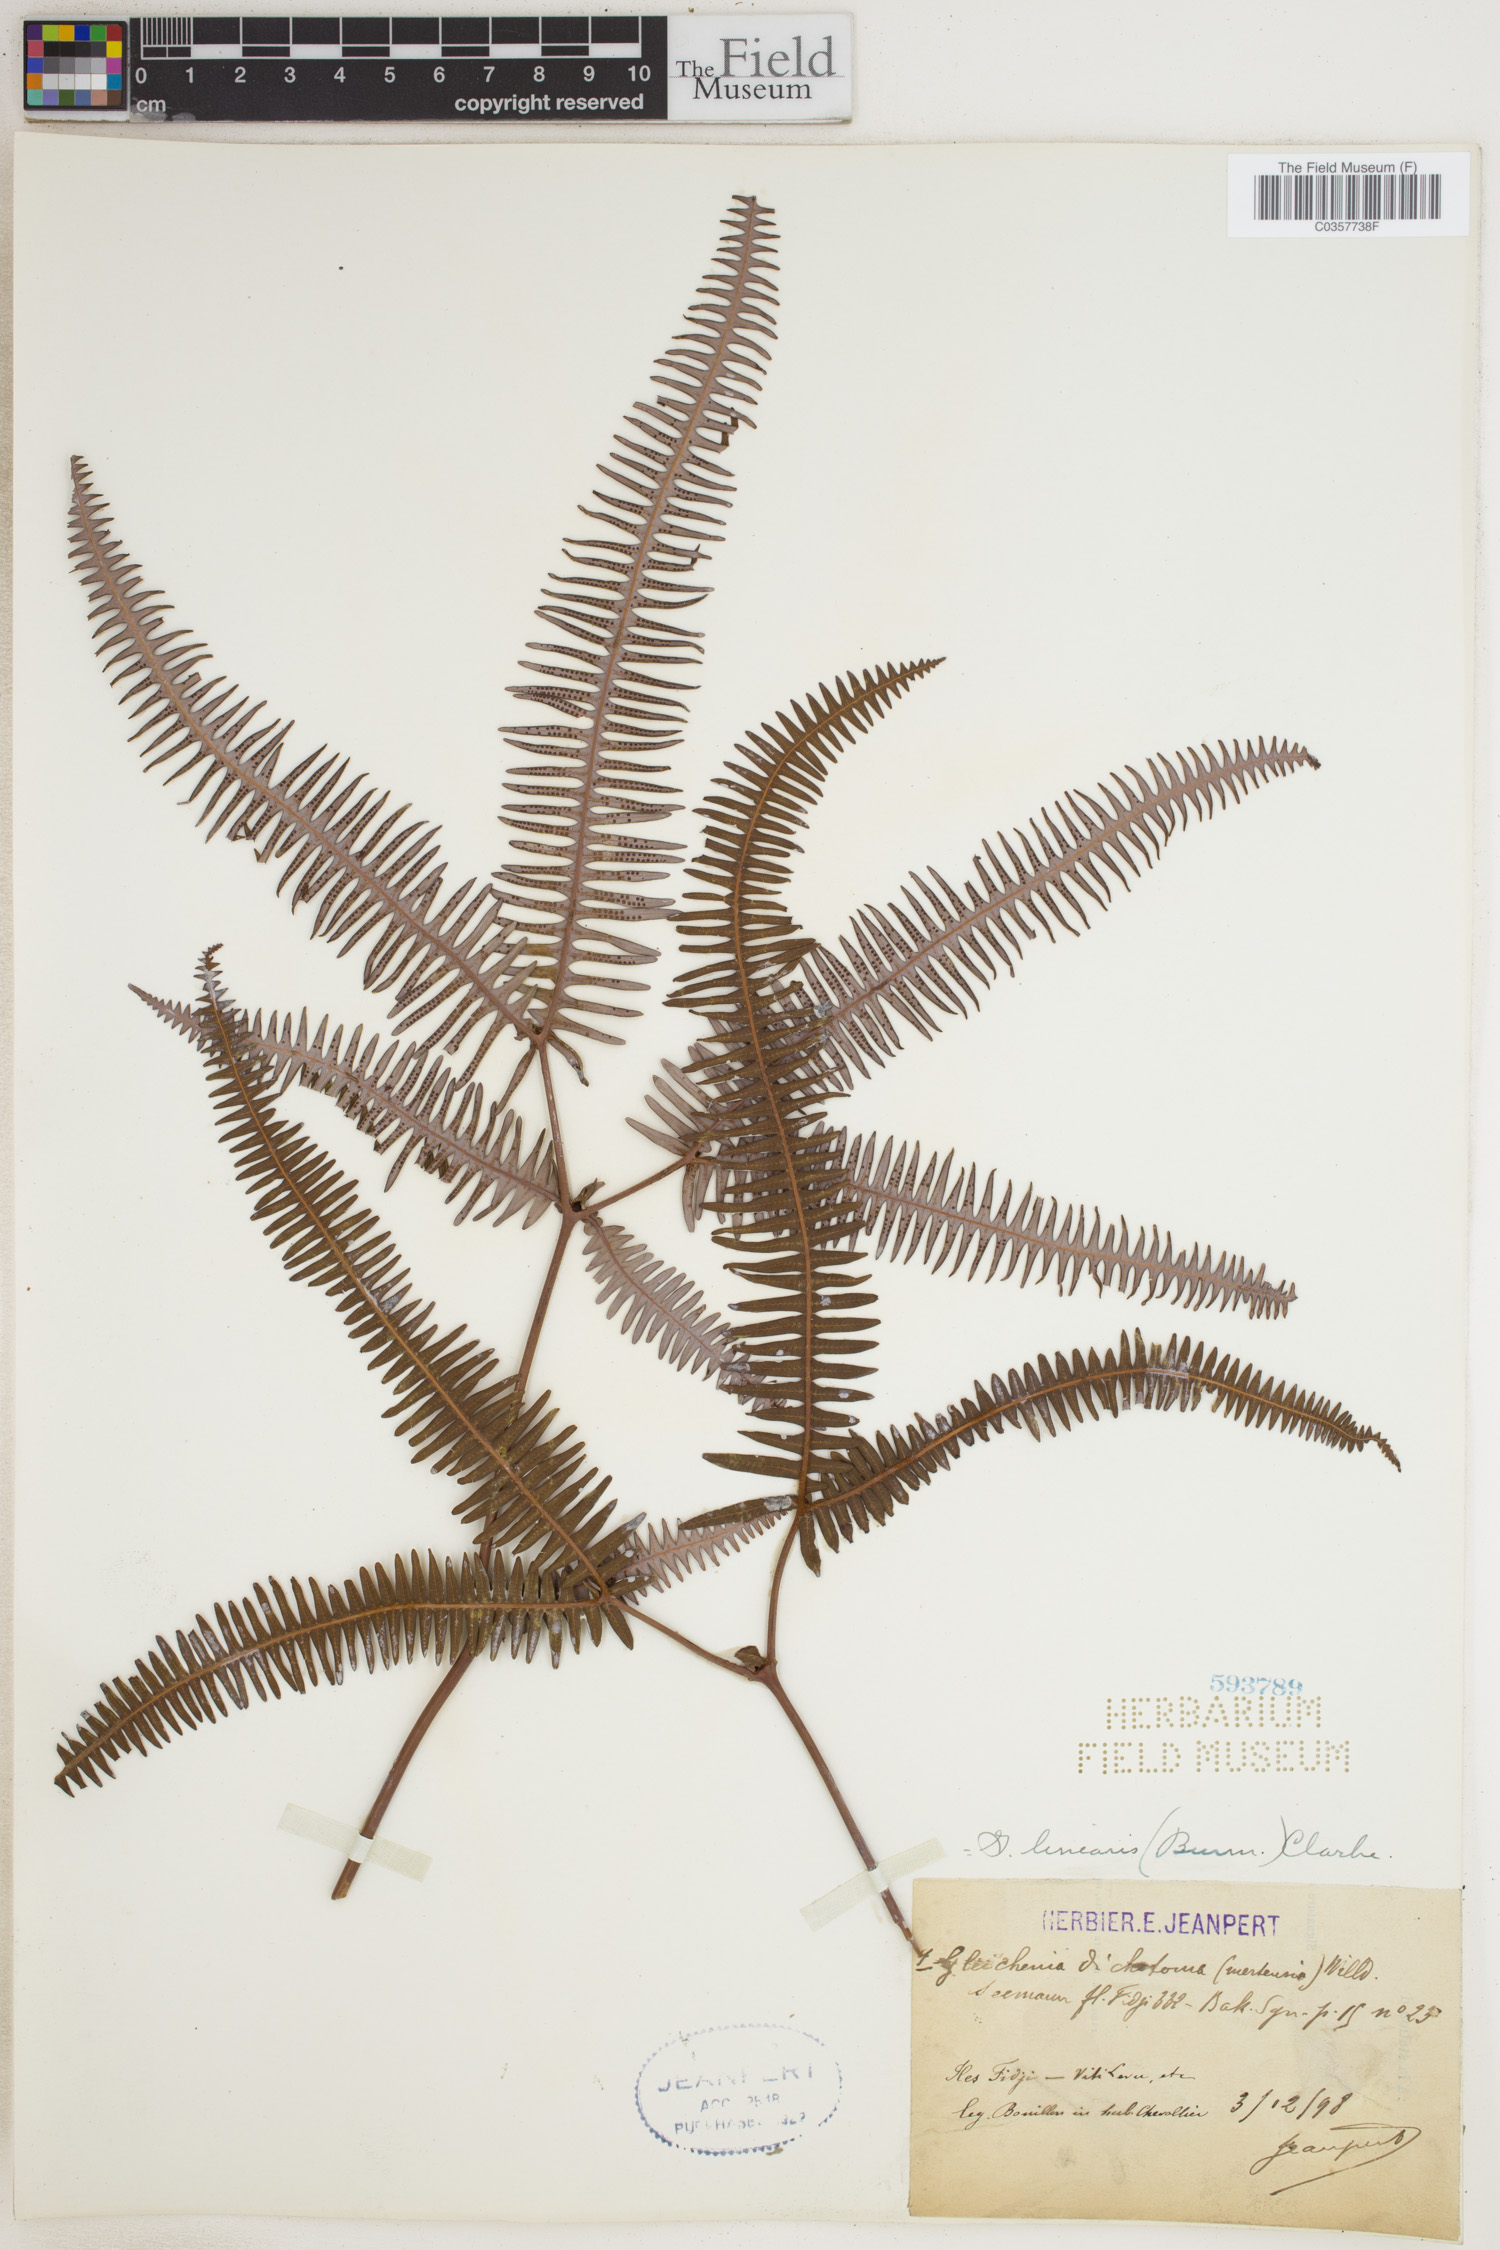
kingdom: Plantae
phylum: Tracheophyta
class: Polypodiopsida
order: Gleicheniales
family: Gleicheniaceae
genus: Dicranopteris
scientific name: Dicranopteris linearis
